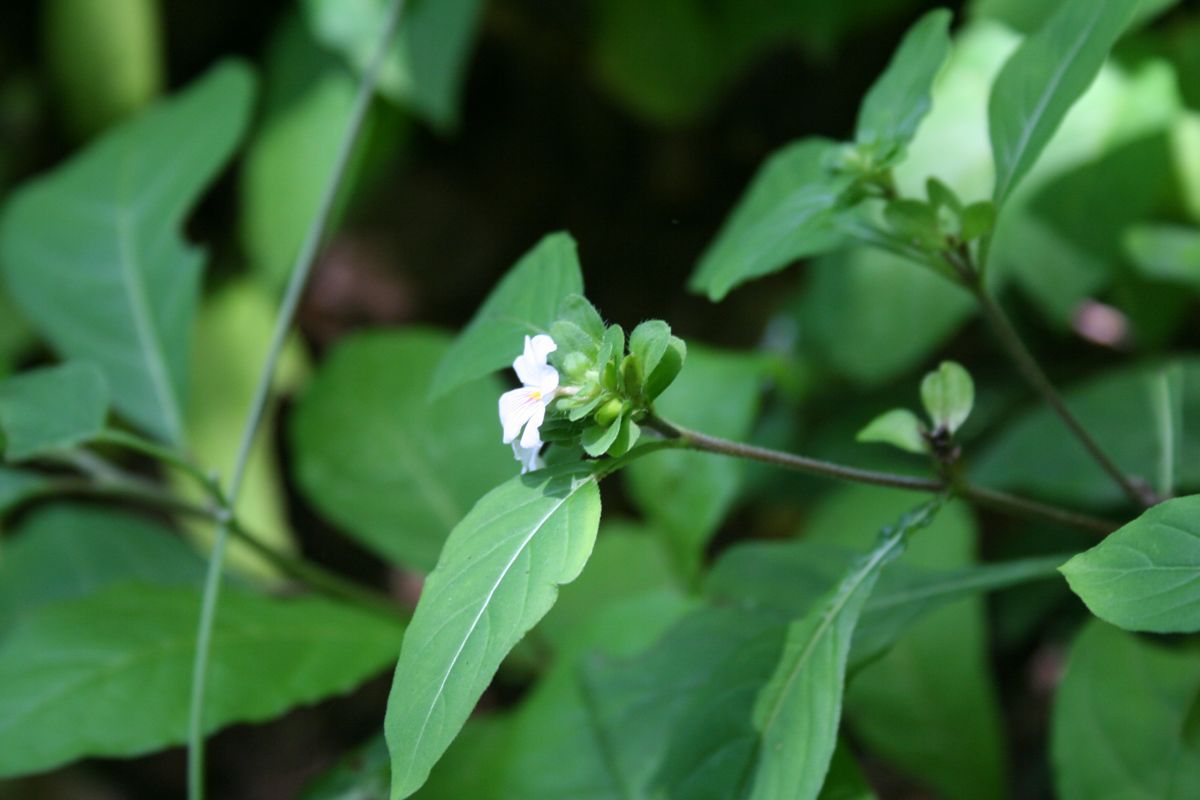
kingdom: Plantae
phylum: Tracheophyta
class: Magnoliopsida
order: Lamiales
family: Acanthaceae
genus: Stenandrium
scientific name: Stenandrium pedunculatum
